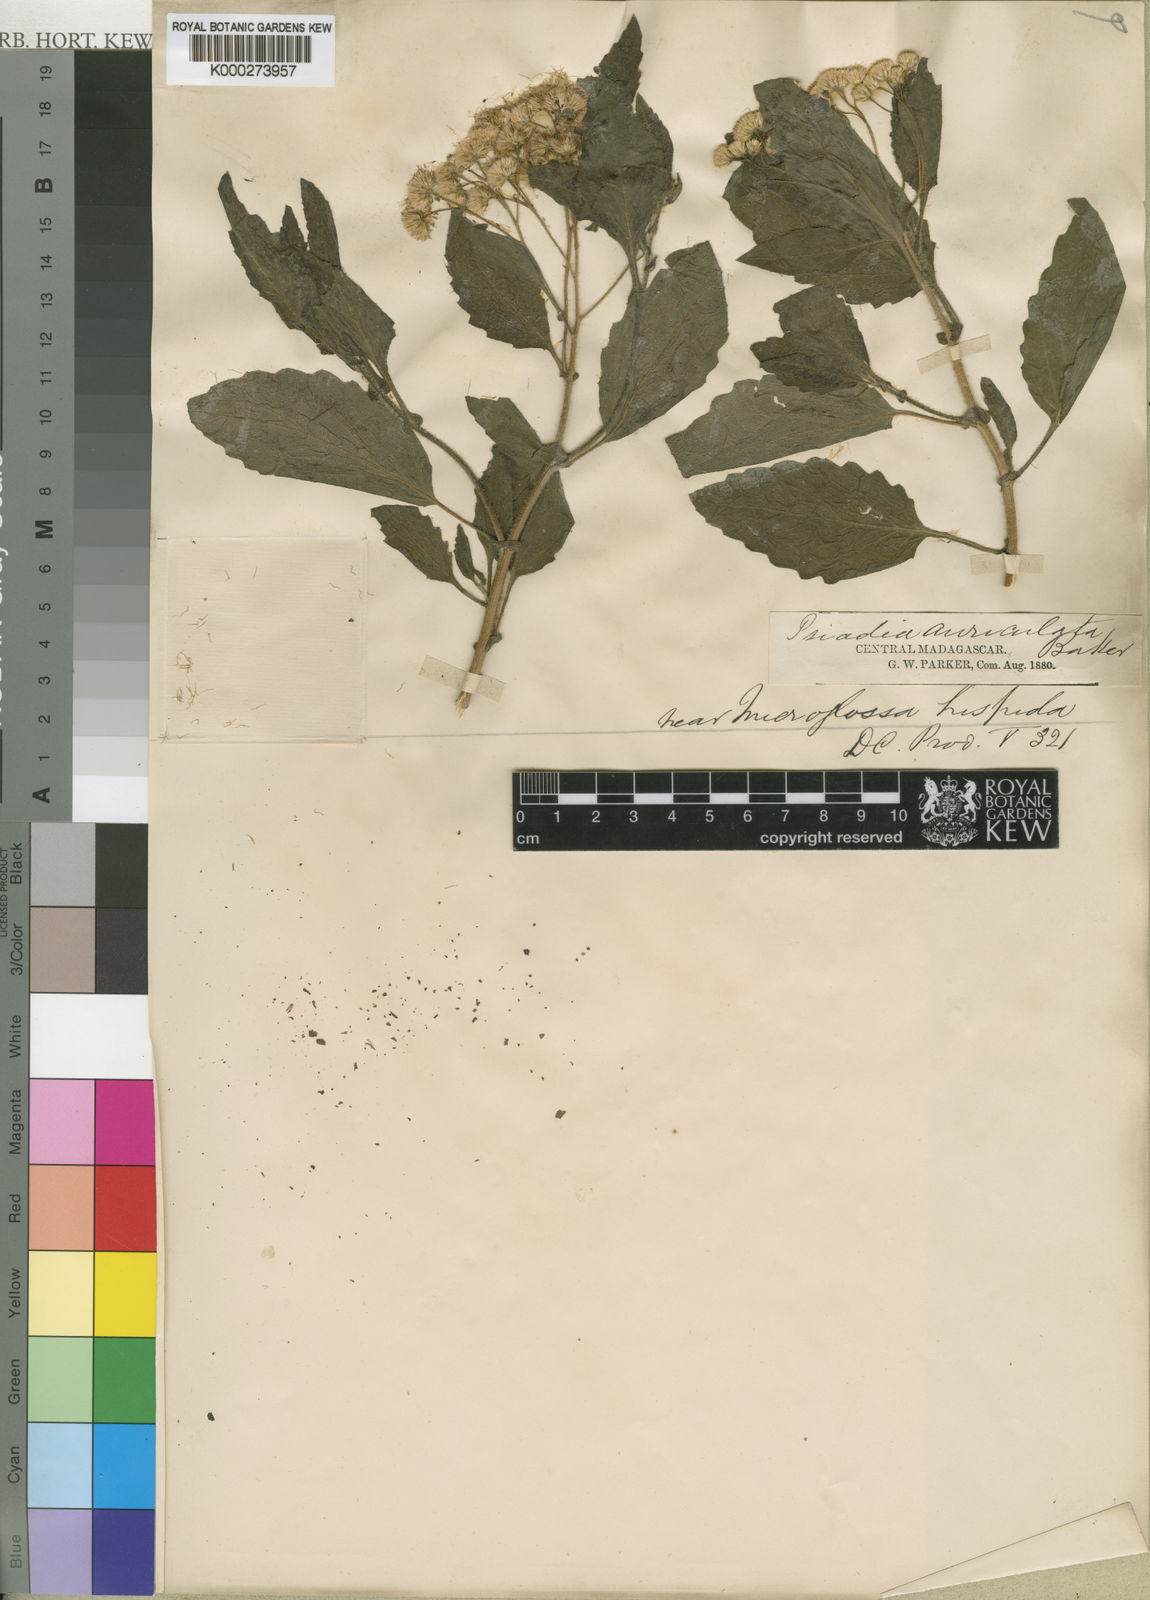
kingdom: Plantae
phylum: Tracheophyta
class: Magnoliopsida
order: Asterales
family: Asteraceae
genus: Psiadia
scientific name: Psiadia hispida
